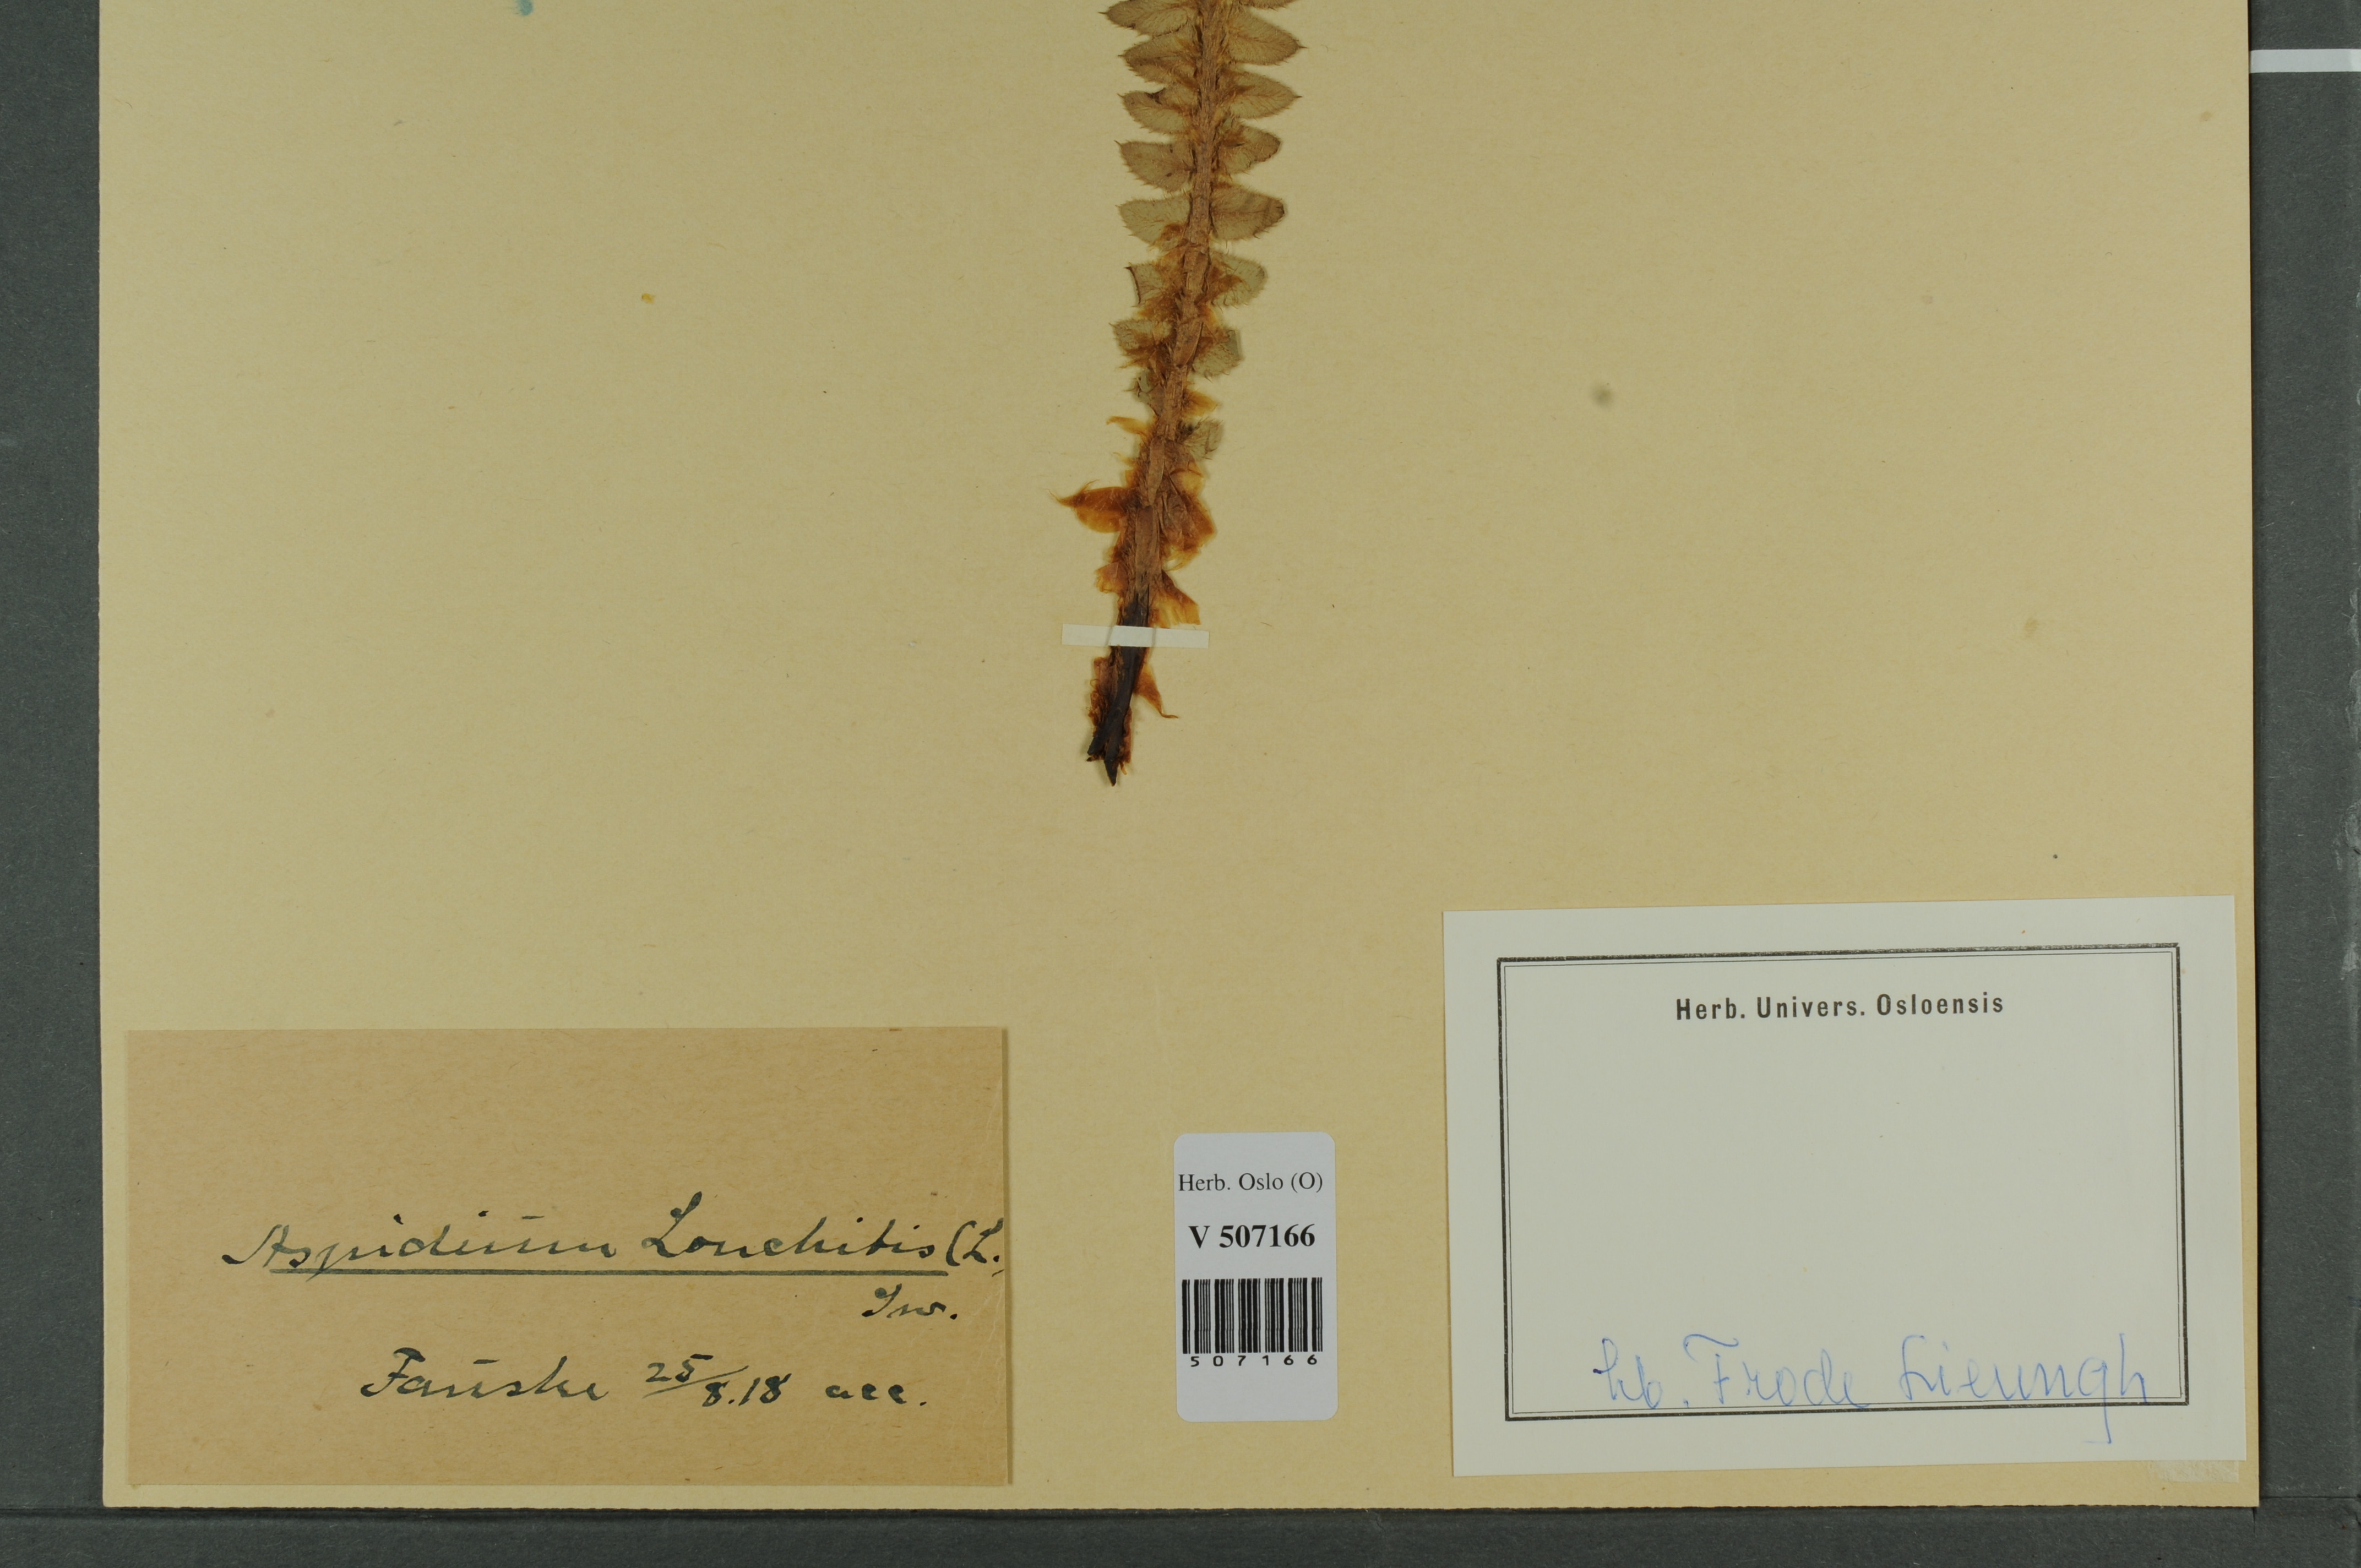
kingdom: Plantae
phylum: Tracheophyta
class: Polypodiopsida
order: Polypodiales
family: Dryopteridaceae
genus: Polystichum
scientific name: Polystichum lonchitis
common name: Holly fern
